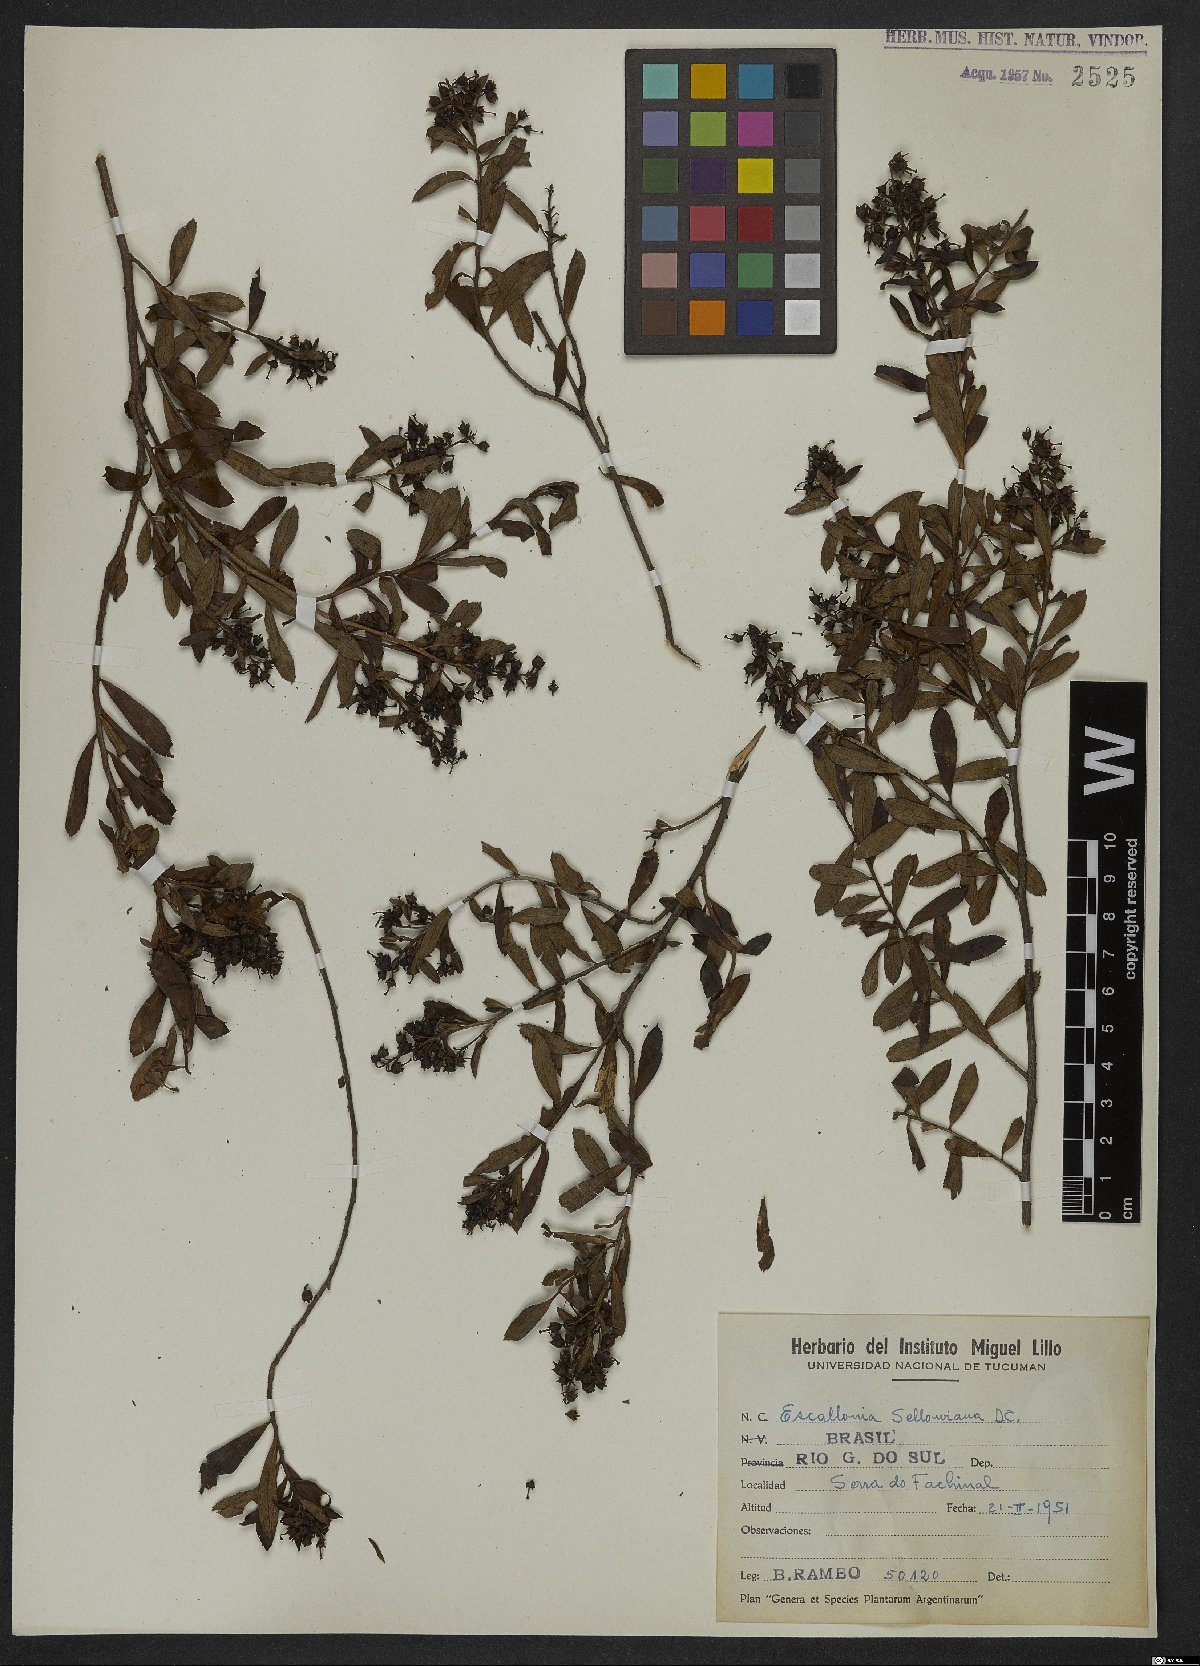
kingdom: Plantae
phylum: Tracheophyta
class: Magnoliopsida
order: Escalloniales
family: Escalloniaceae
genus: Escallonia
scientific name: Escallonia megapotamica
